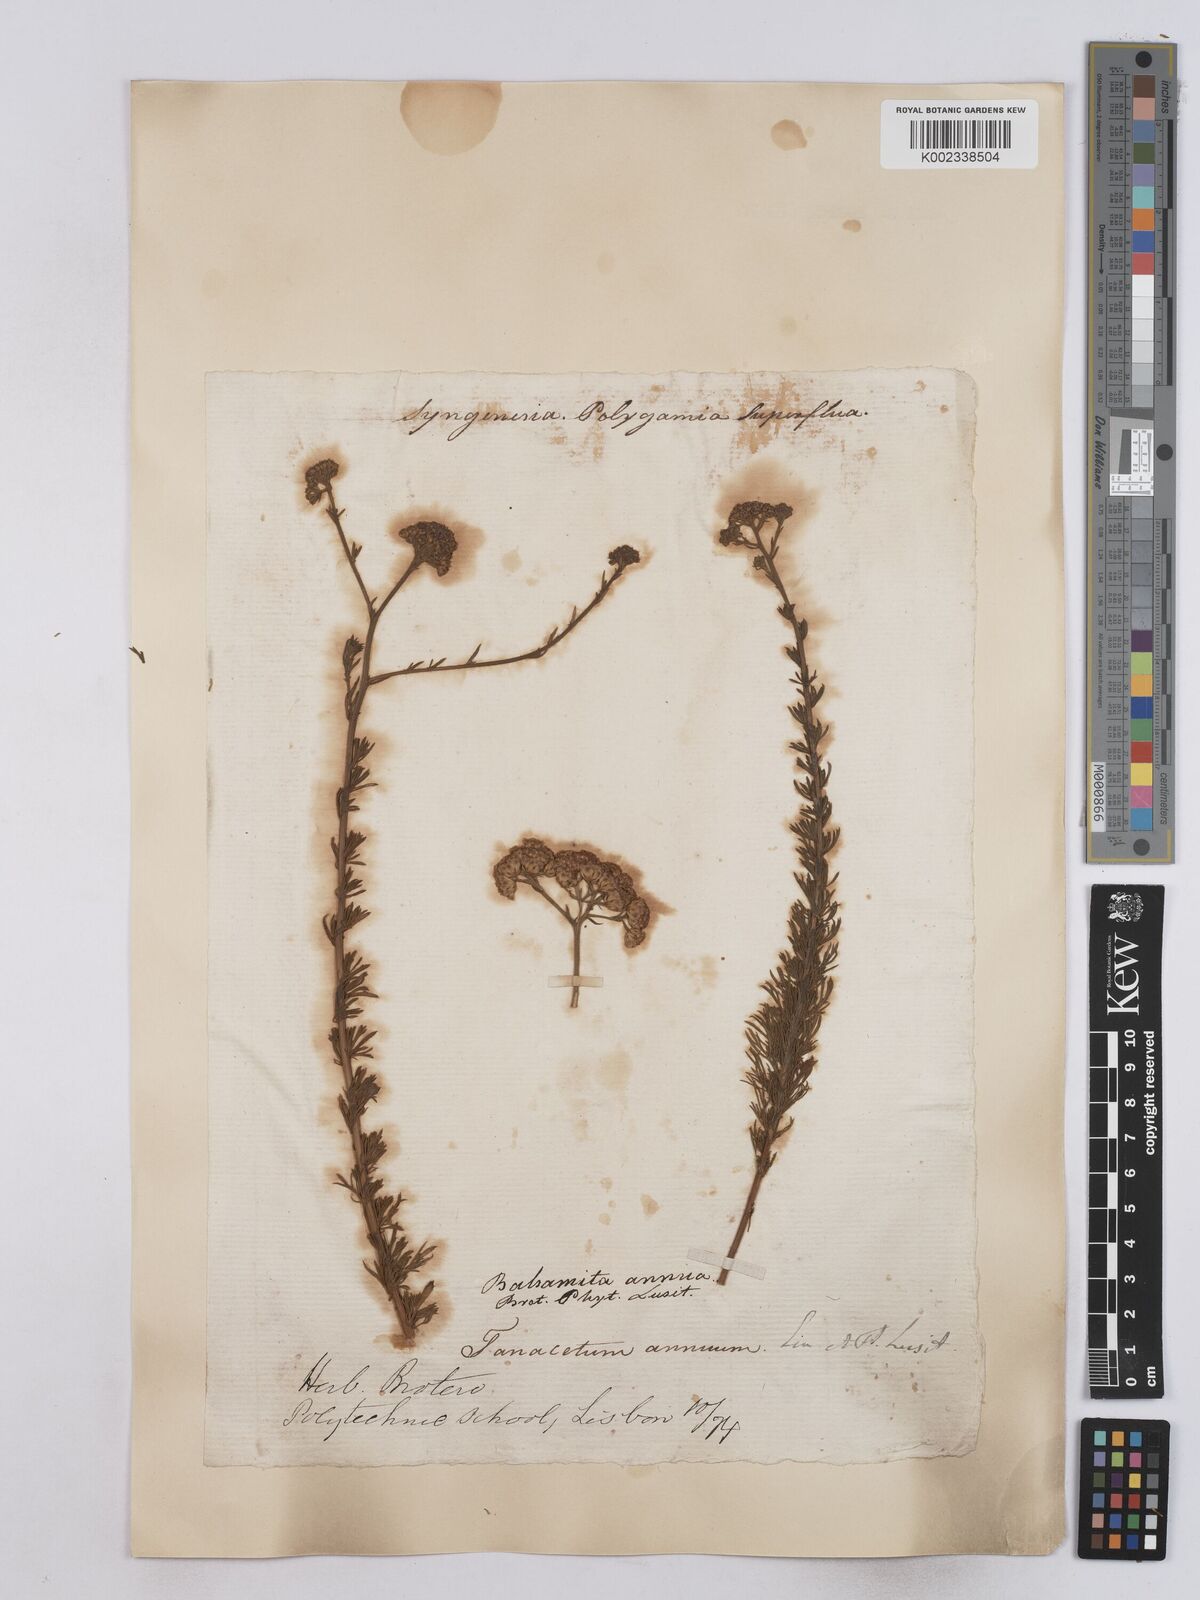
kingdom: Plantae
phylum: Tracheophyta
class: Magnoliopsida
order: Asterales
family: Asteraceae
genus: Vogtia
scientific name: Vogtia annua
